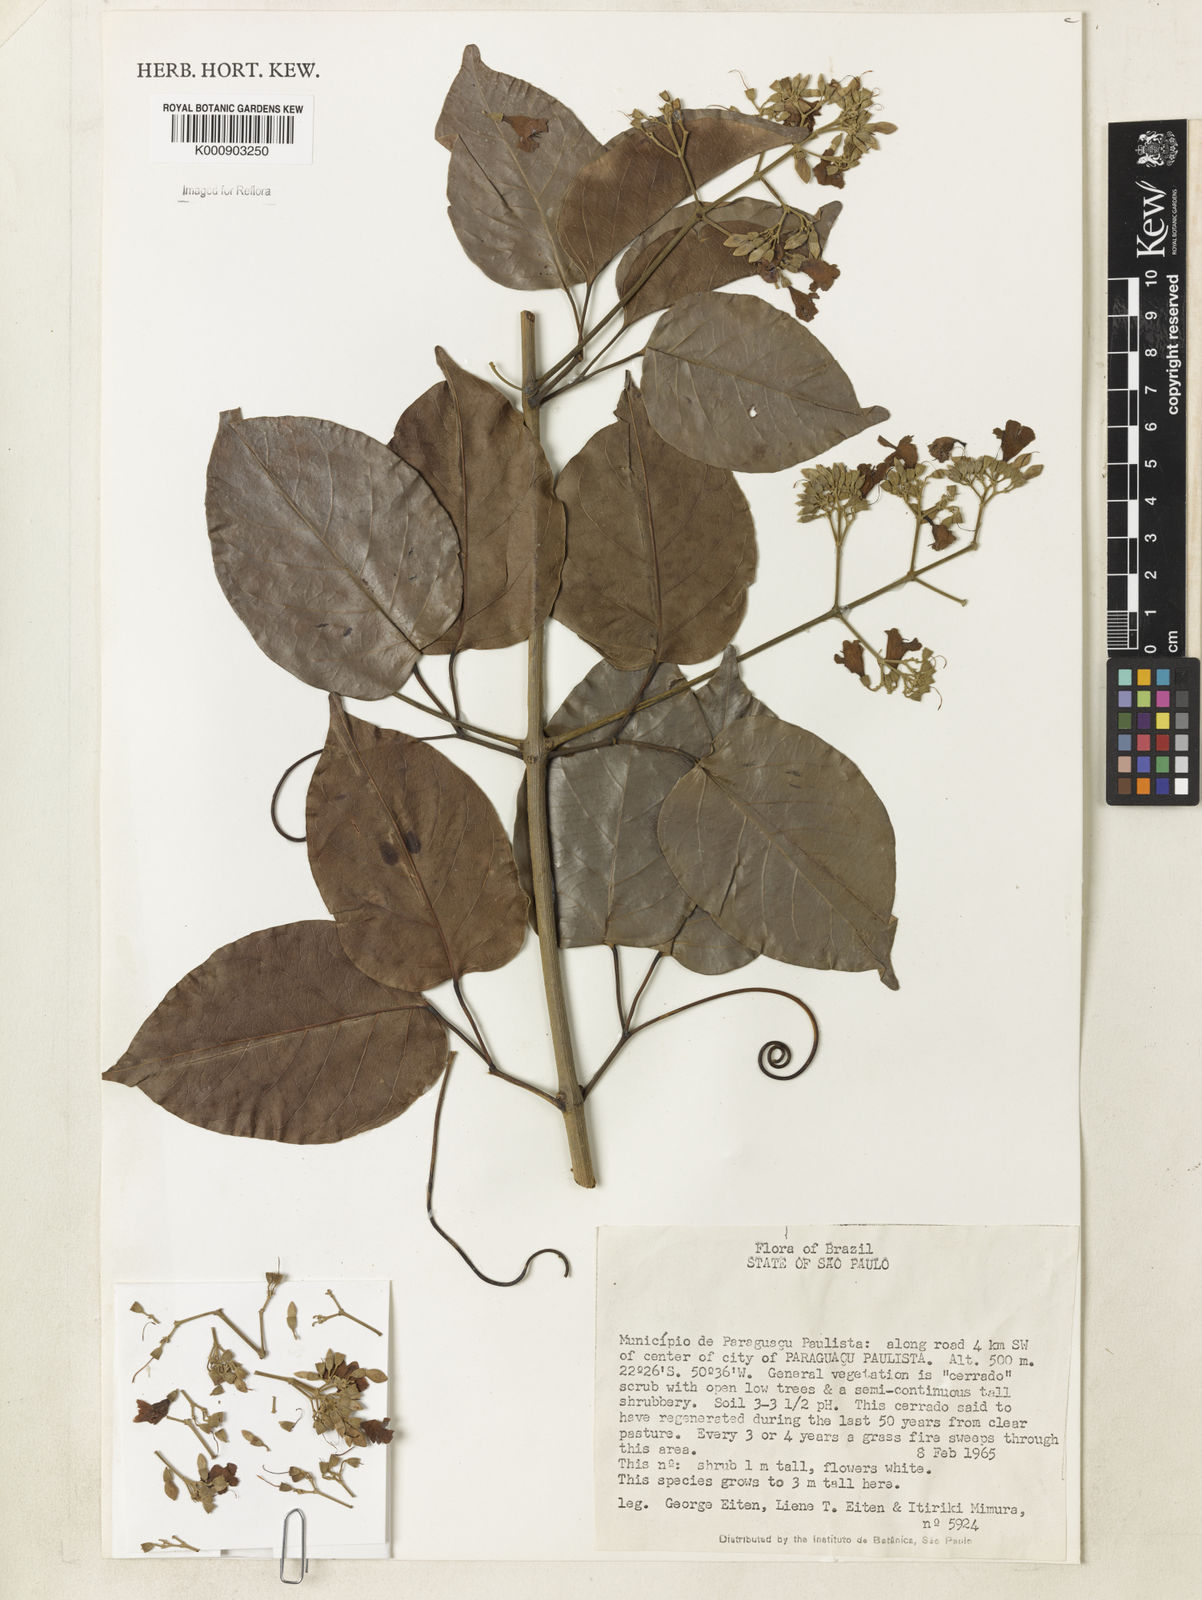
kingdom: Plantae
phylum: Tracheophyta
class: Magnoliopsida
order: Lamiales
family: Bignoniaceae
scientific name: Bignoniaceae
